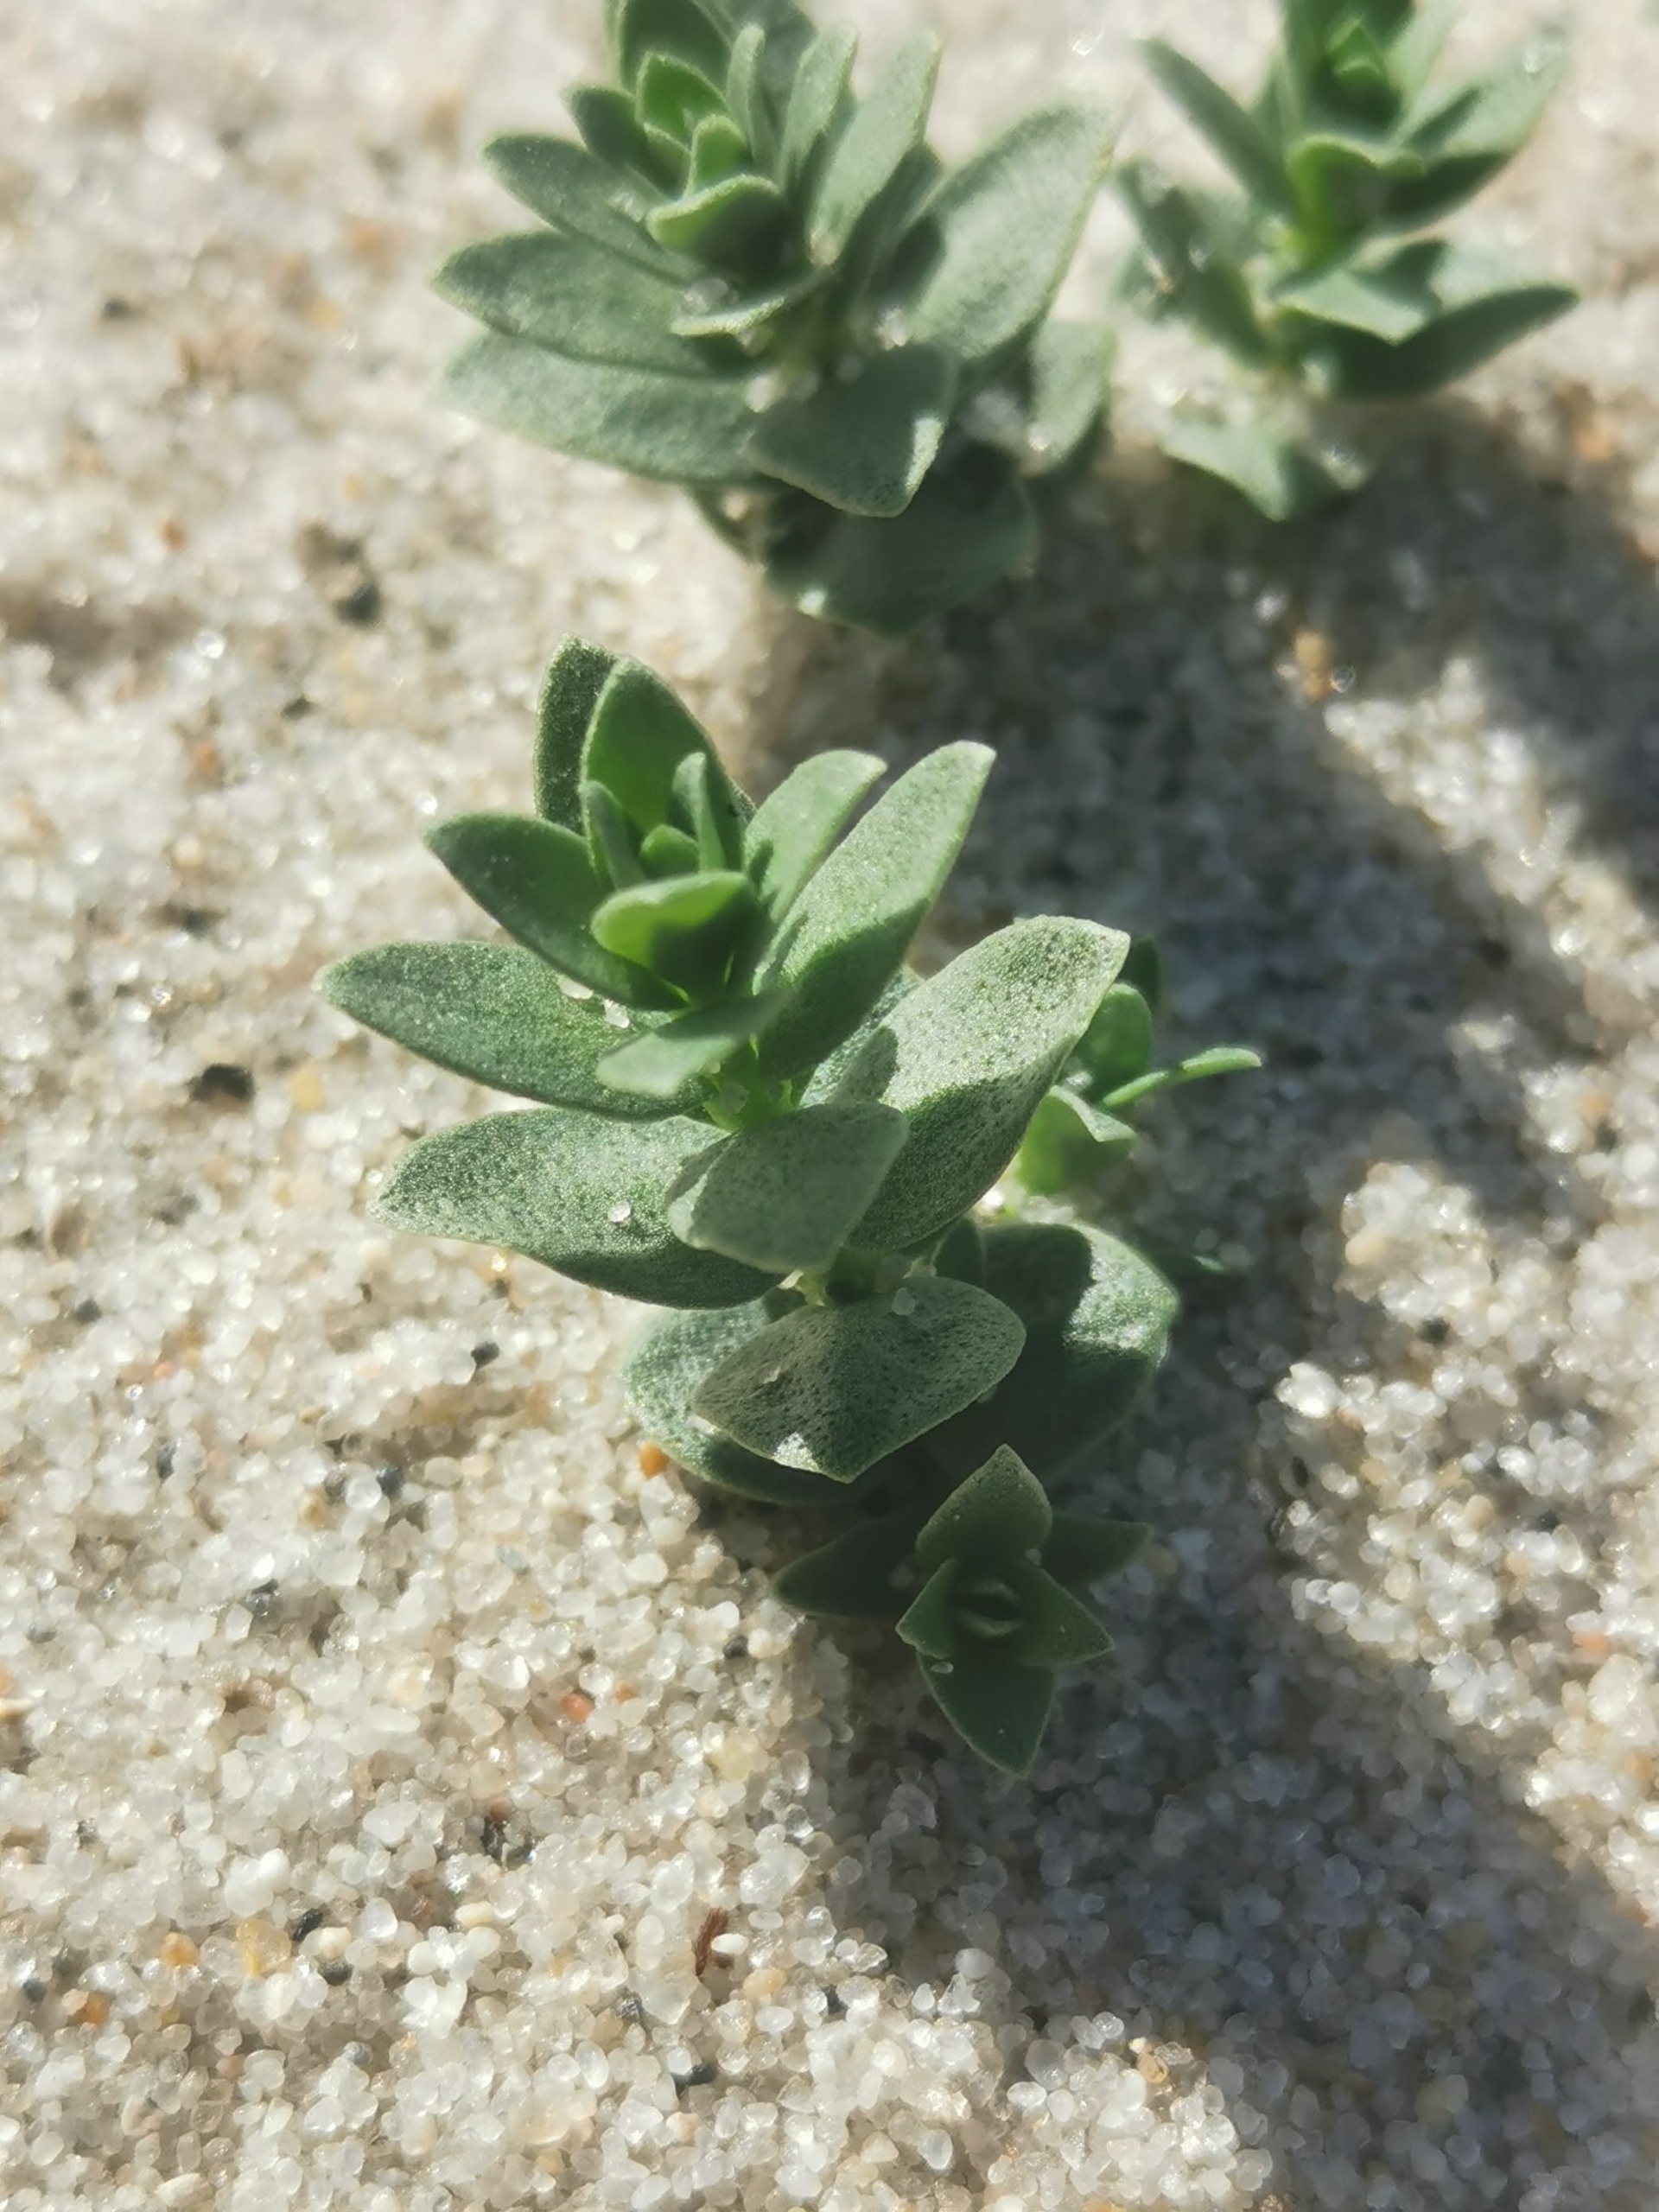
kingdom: Plantae
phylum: Tracheophyta
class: Magnoliopsida
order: Ericales
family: Primulaceae
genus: Lysimachia
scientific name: Lysimachia maritima
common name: Sandkryb
